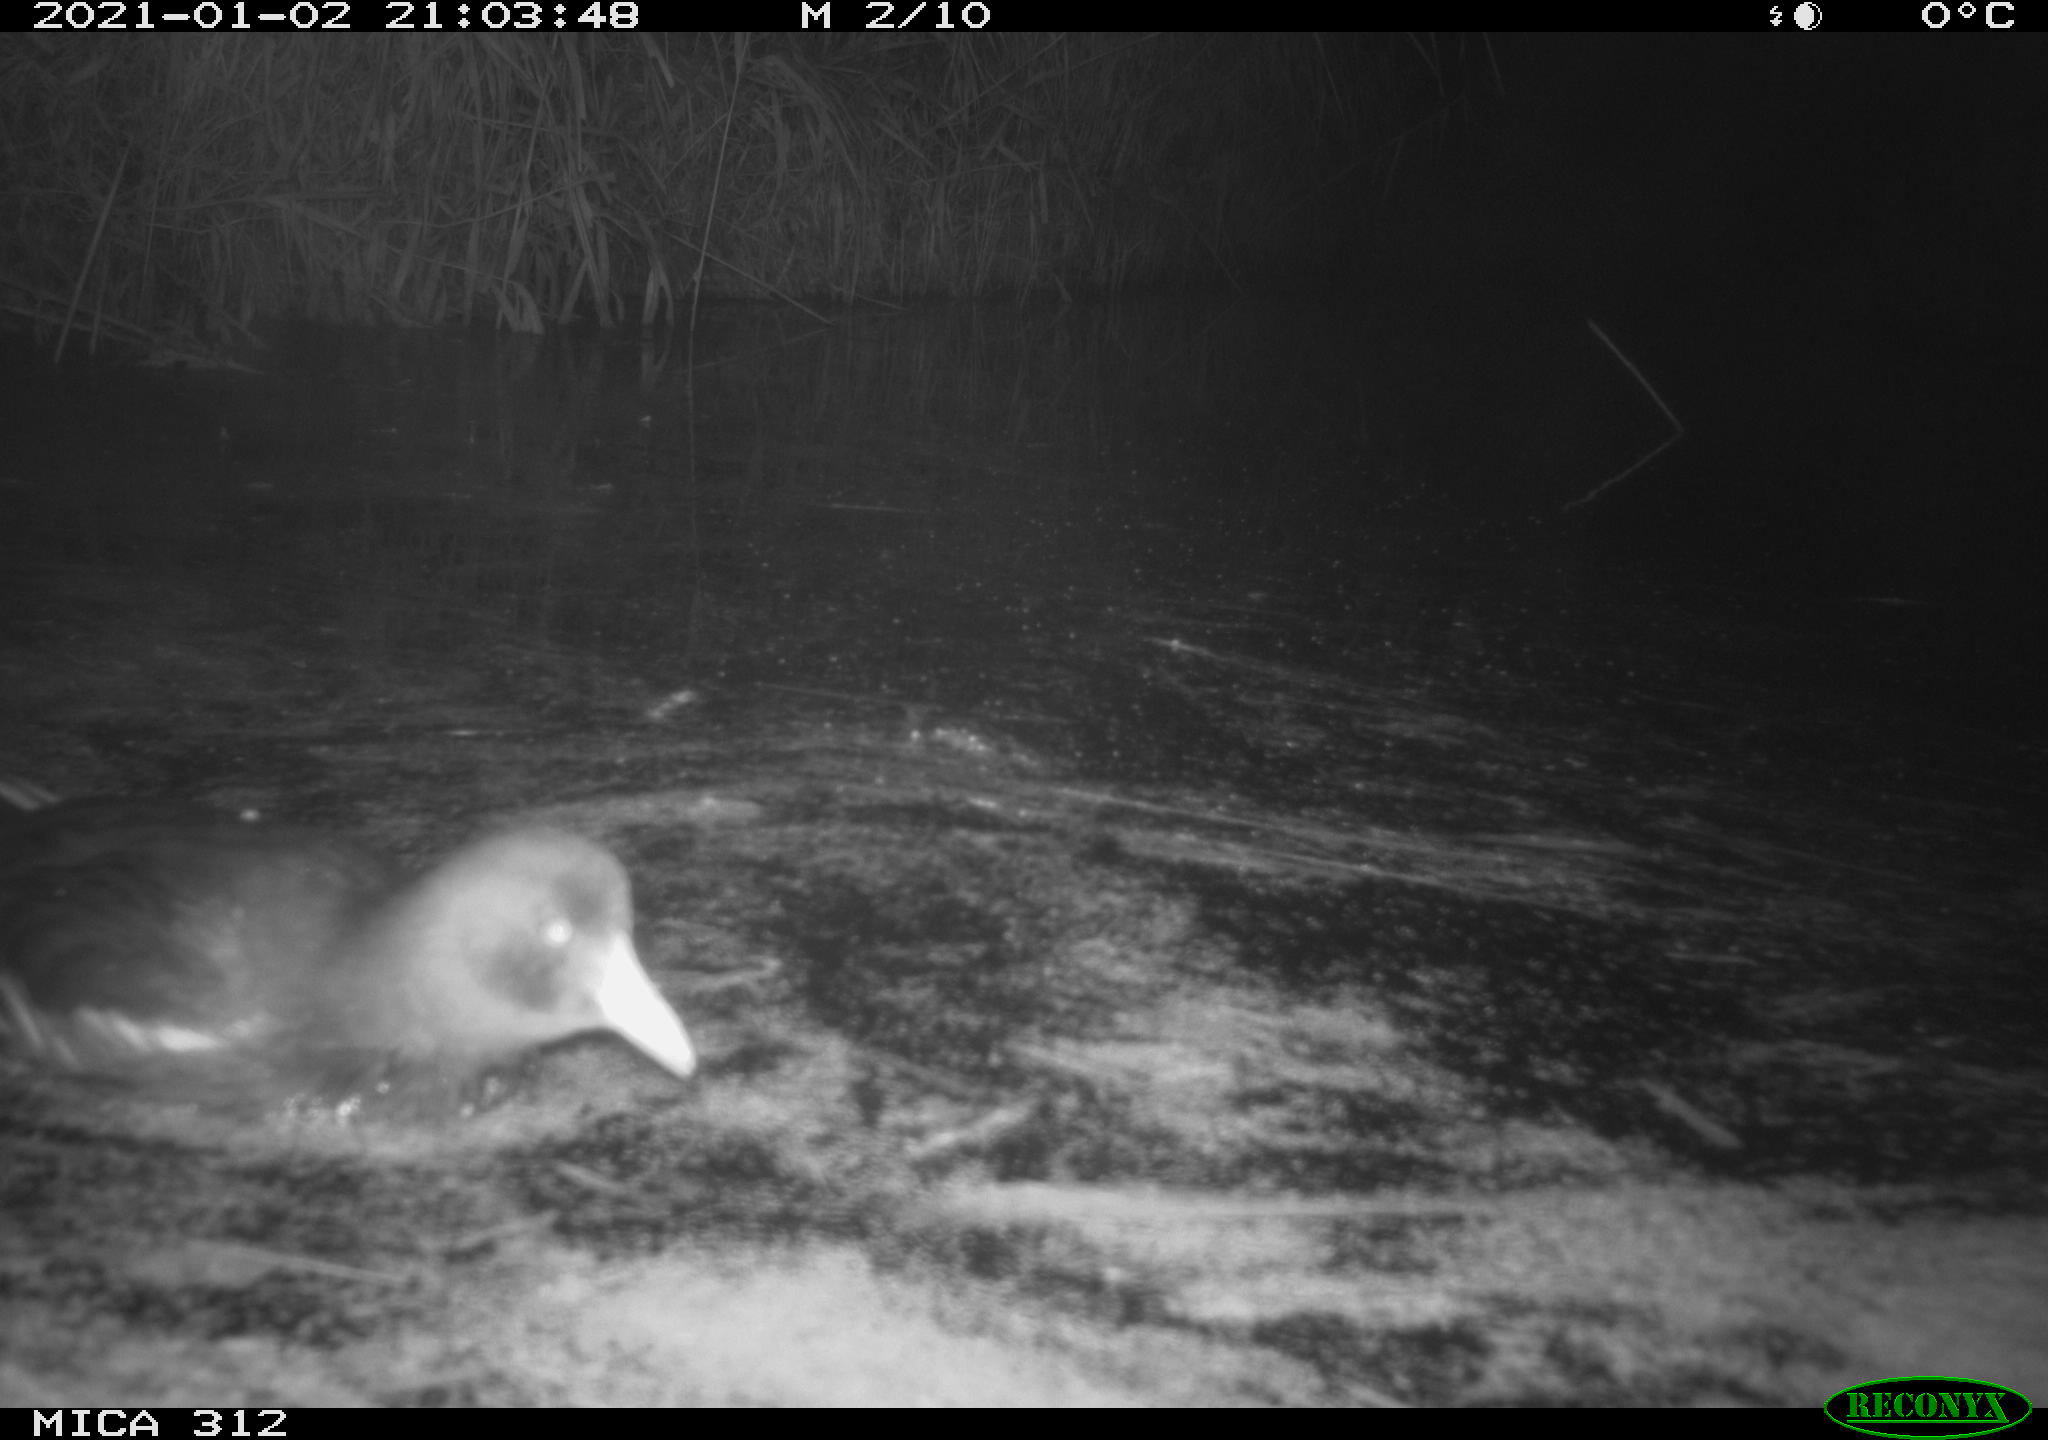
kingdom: Animalia
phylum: Chordata
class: Aves
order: Gruiformes
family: Rallidae
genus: Gallinula
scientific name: Gallinula chloropus
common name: Common moorhen
